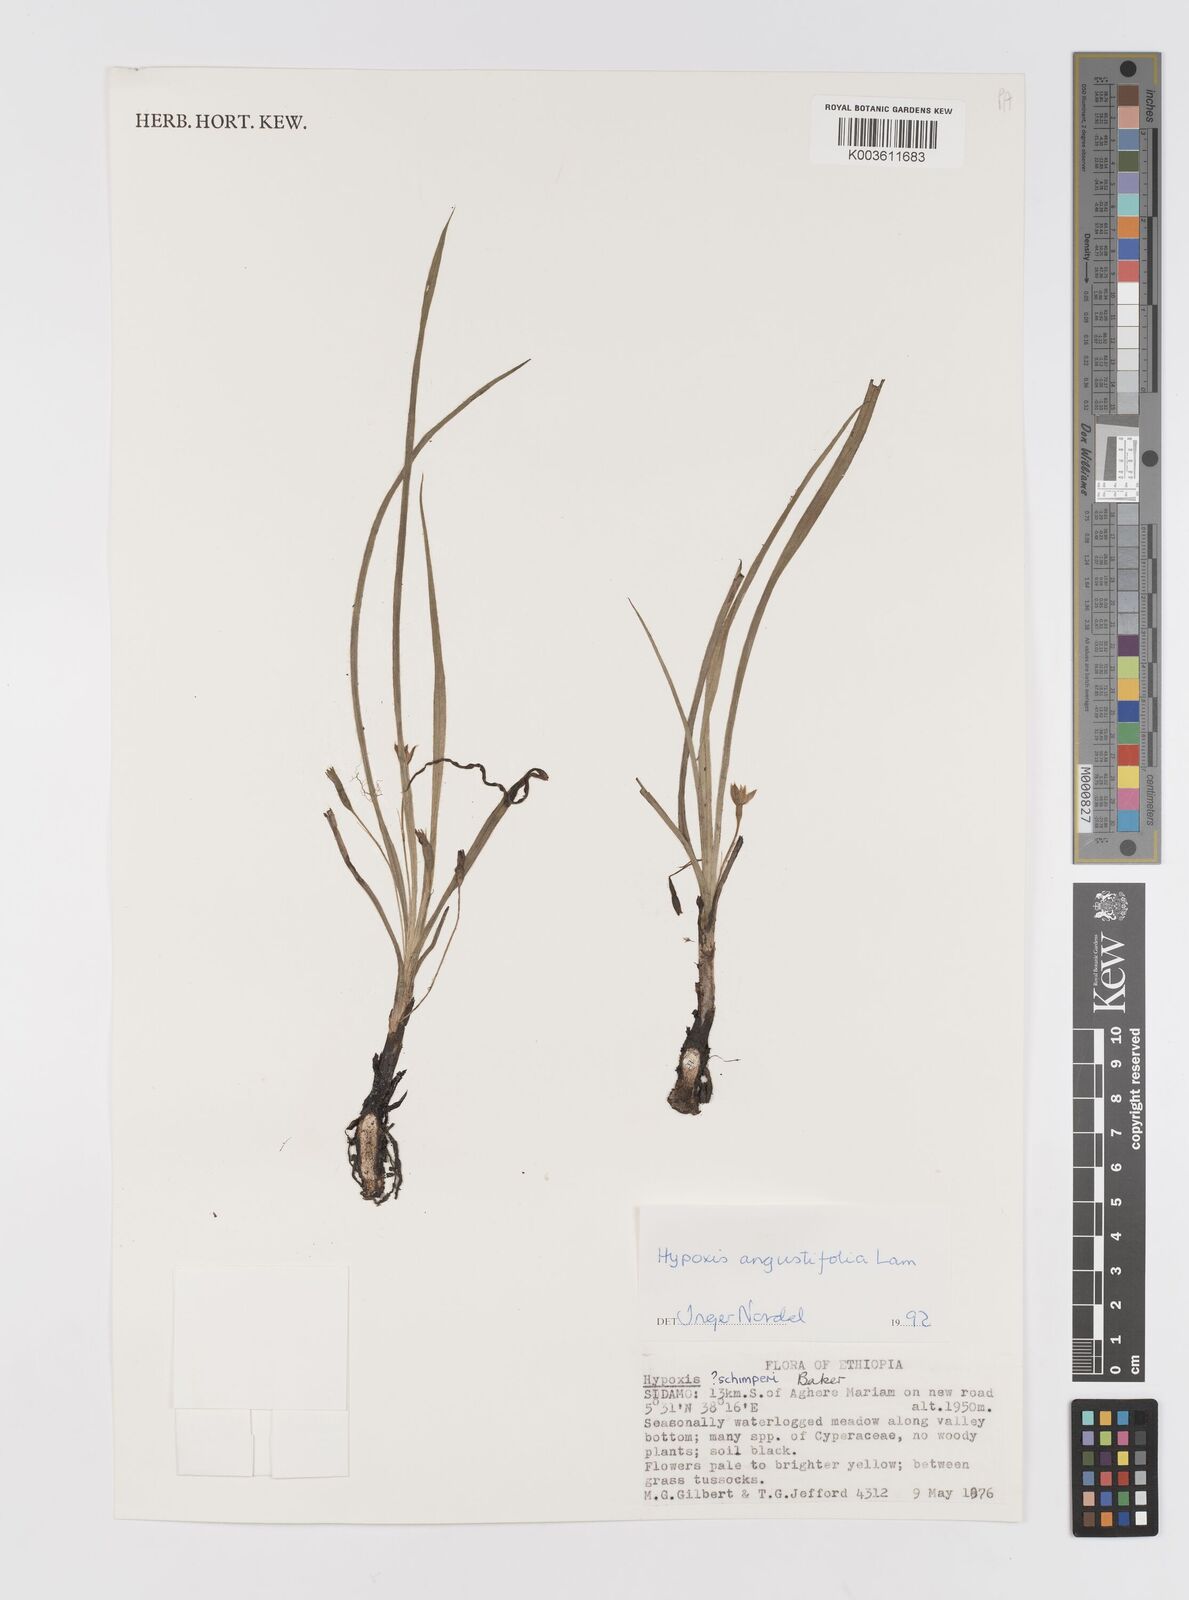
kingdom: Plantae
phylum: Tracheophyta
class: Liliopsida
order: Asparagales
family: Hypoxidaceae
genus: Hypoxis
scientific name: Hypoxis angustifolia
